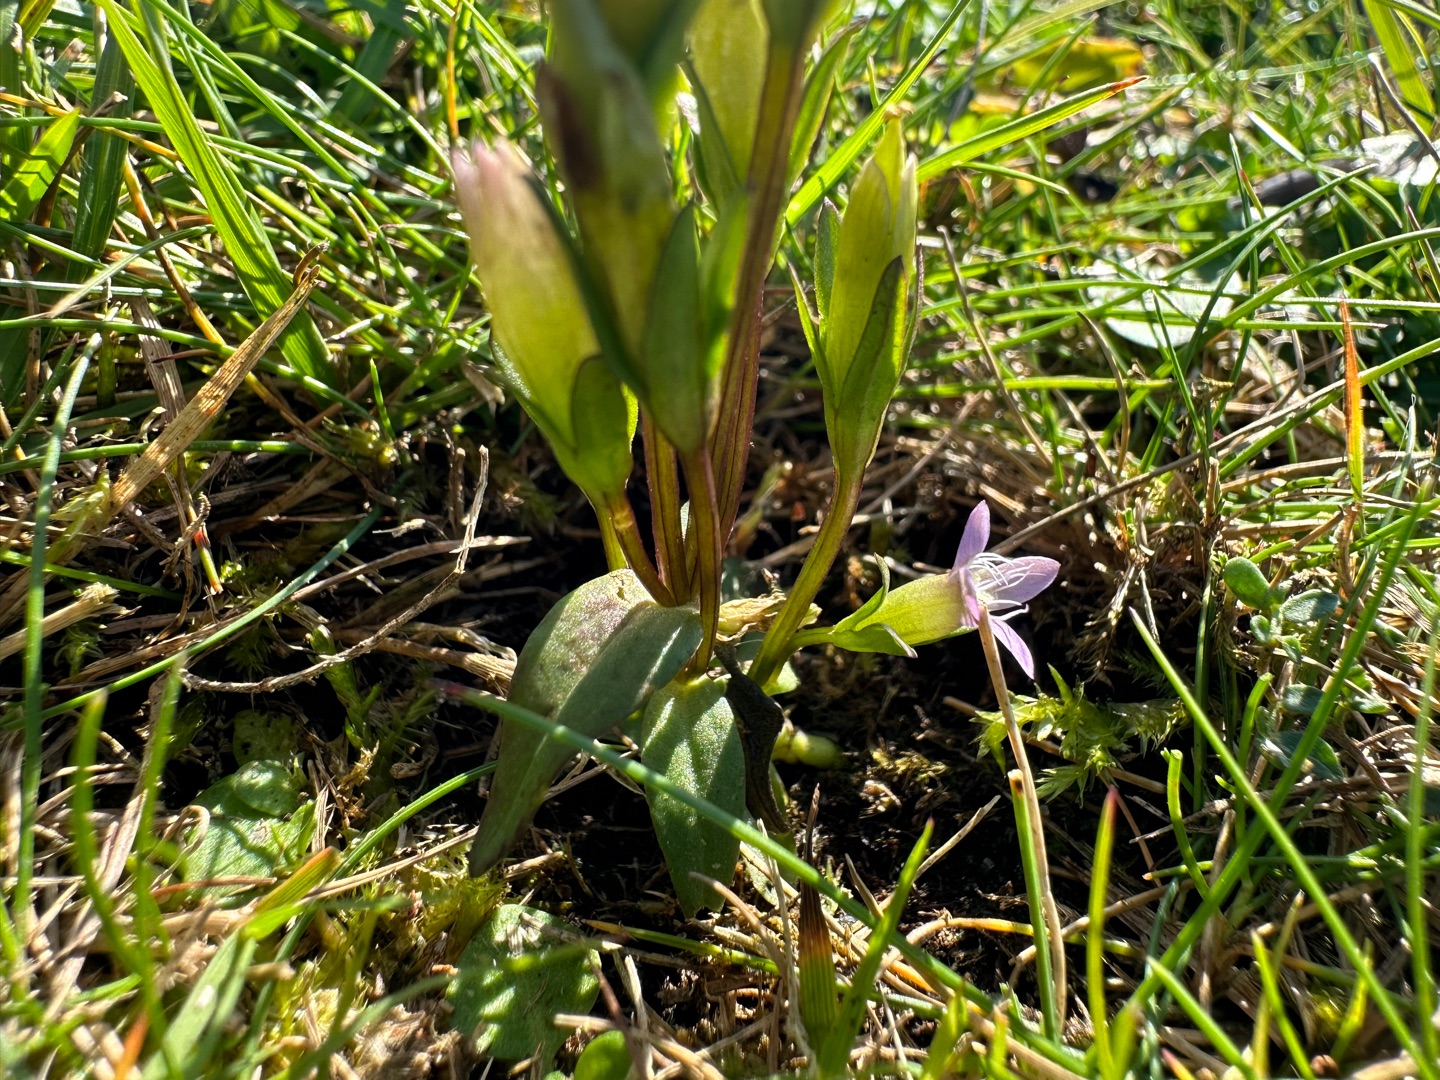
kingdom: Plantae
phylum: Tracheophyta
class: Magnoliopsida
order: Gentianales
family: Gentianaceae
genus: Gentianella
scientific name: Gentianella uliginosa
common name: Eng-ensian
